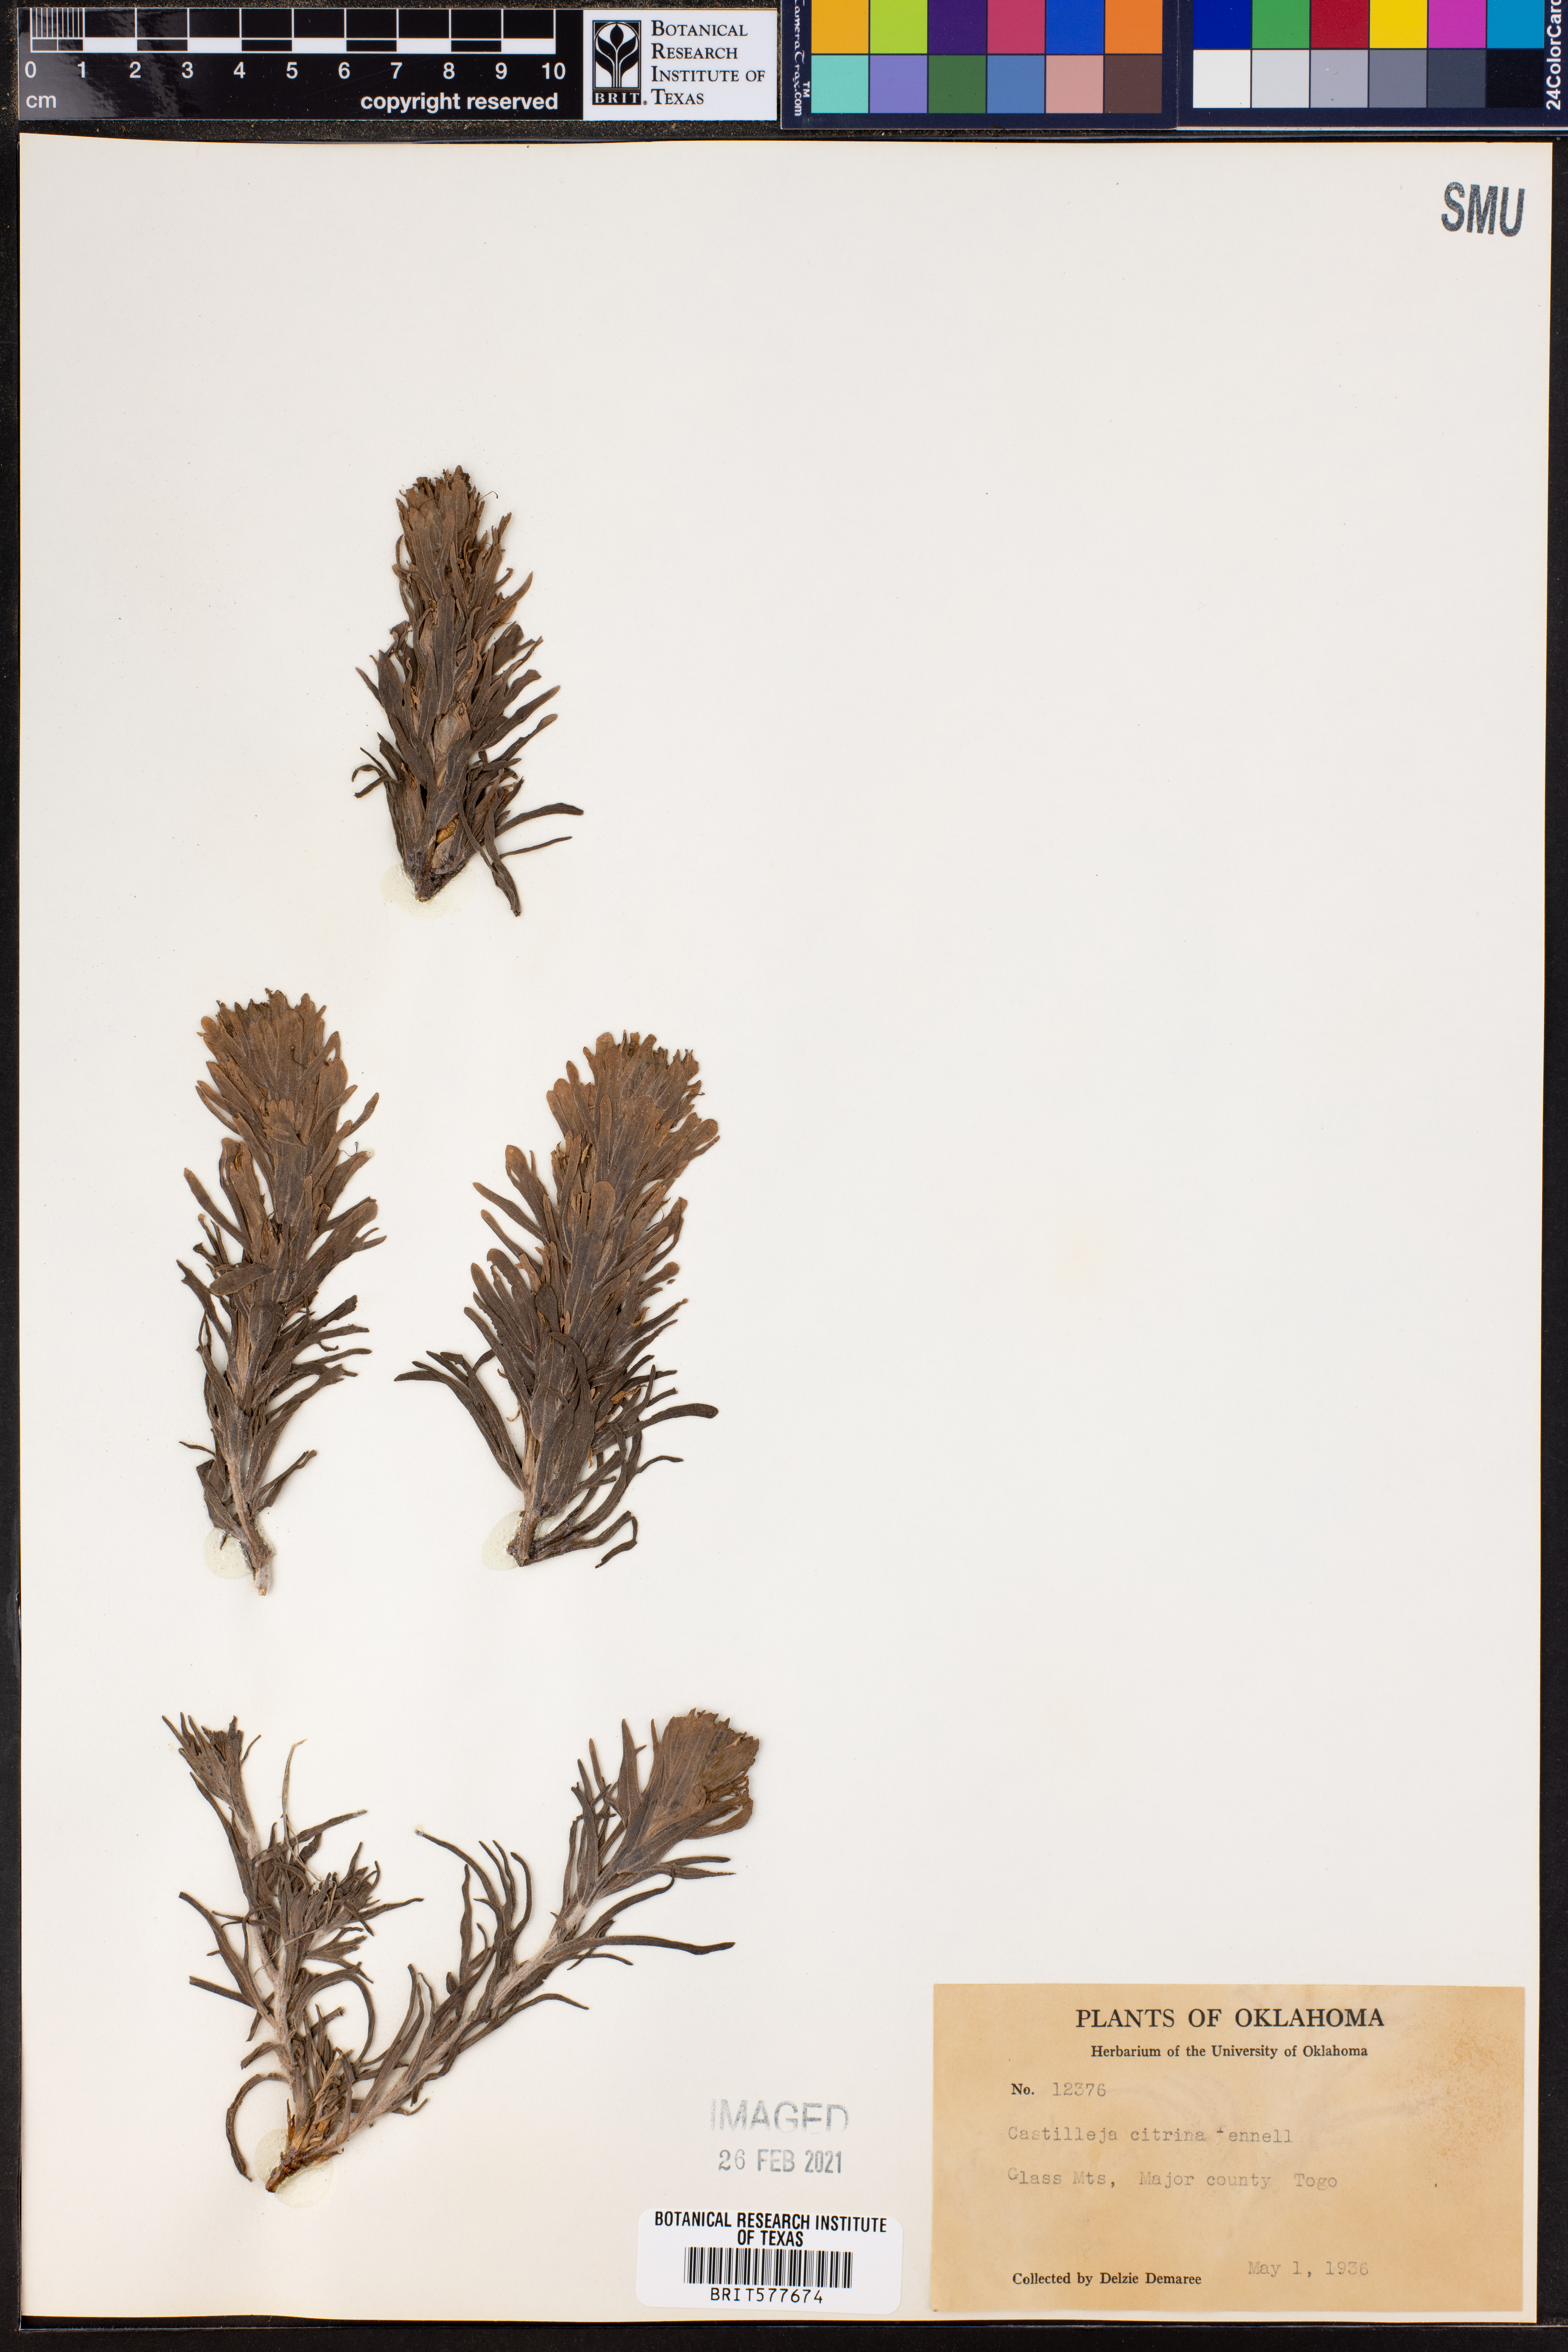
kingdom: Plantae
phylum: Tracheophyta
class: Magnoliopsida
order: Lamiales
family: Orobanchaceae
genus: Castilleja
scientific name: Castilleja citrina
